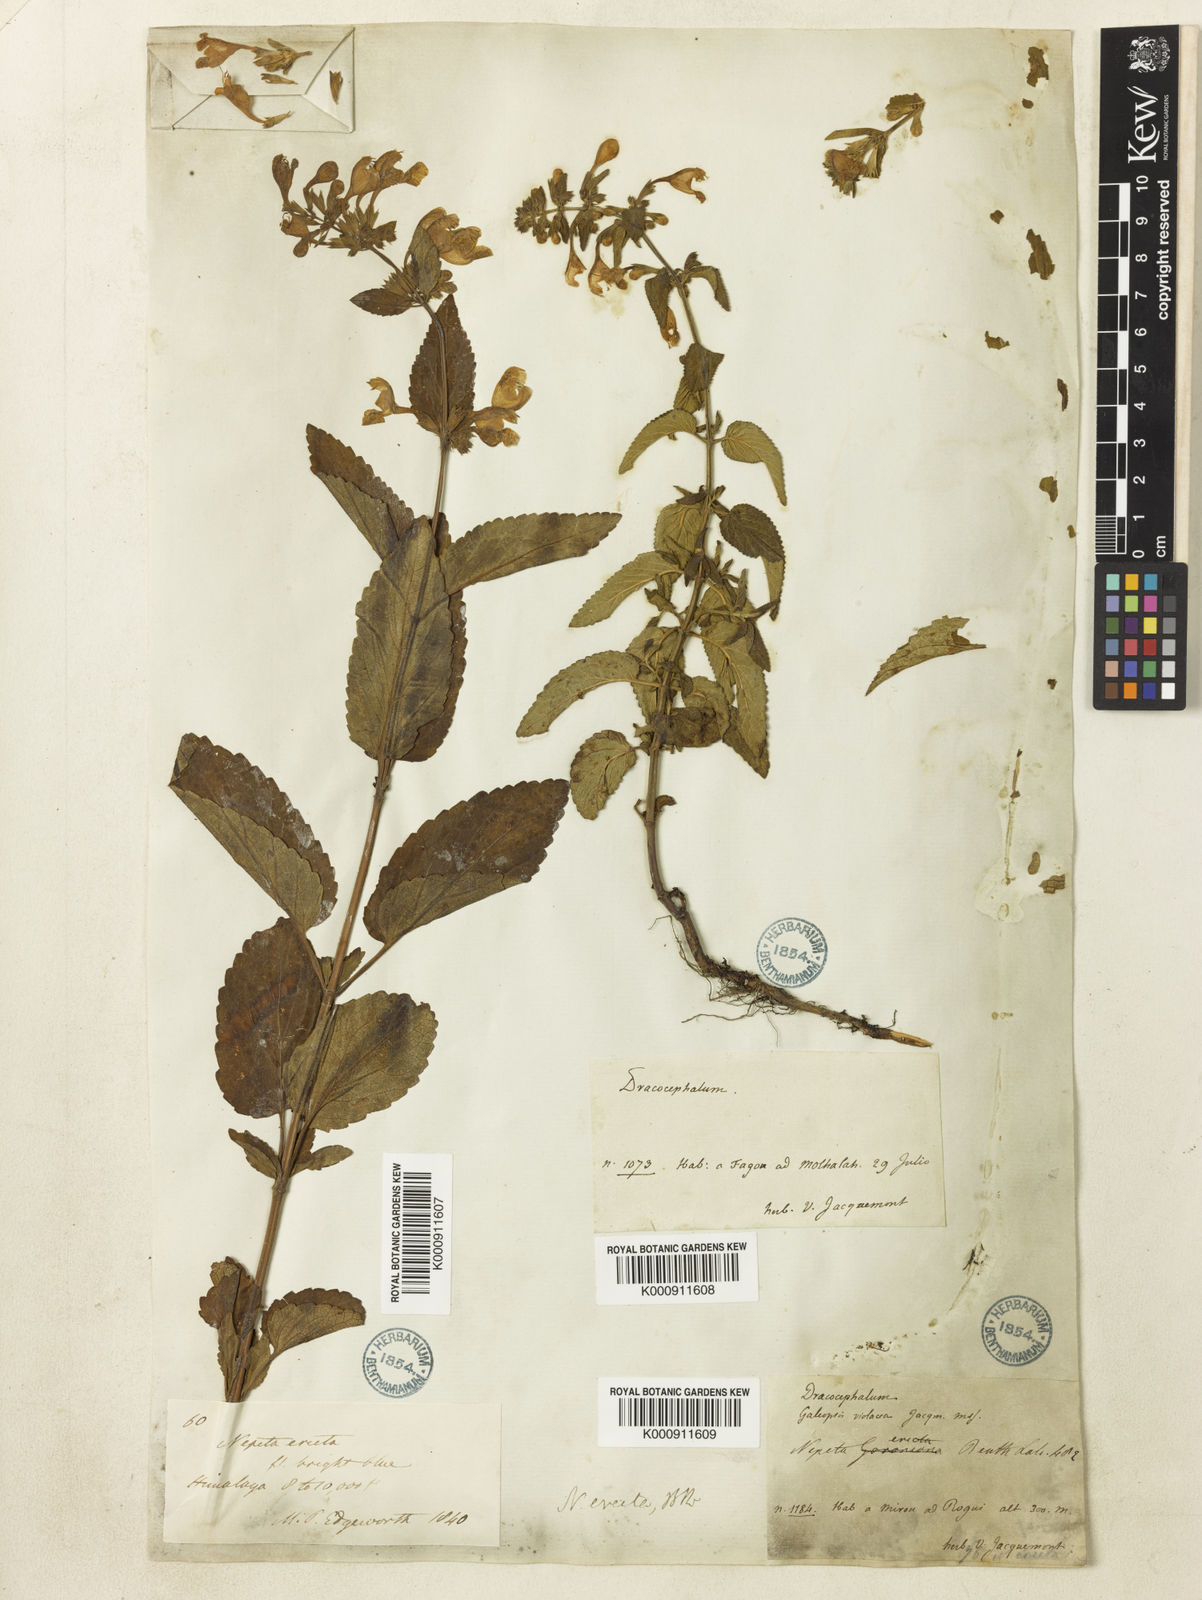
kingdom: Plantae
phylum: Tracheophyta
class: Magnoliopsida
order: Lamiales
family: Lamiaceae
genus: Nepeta
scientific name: Nepeta erecta
